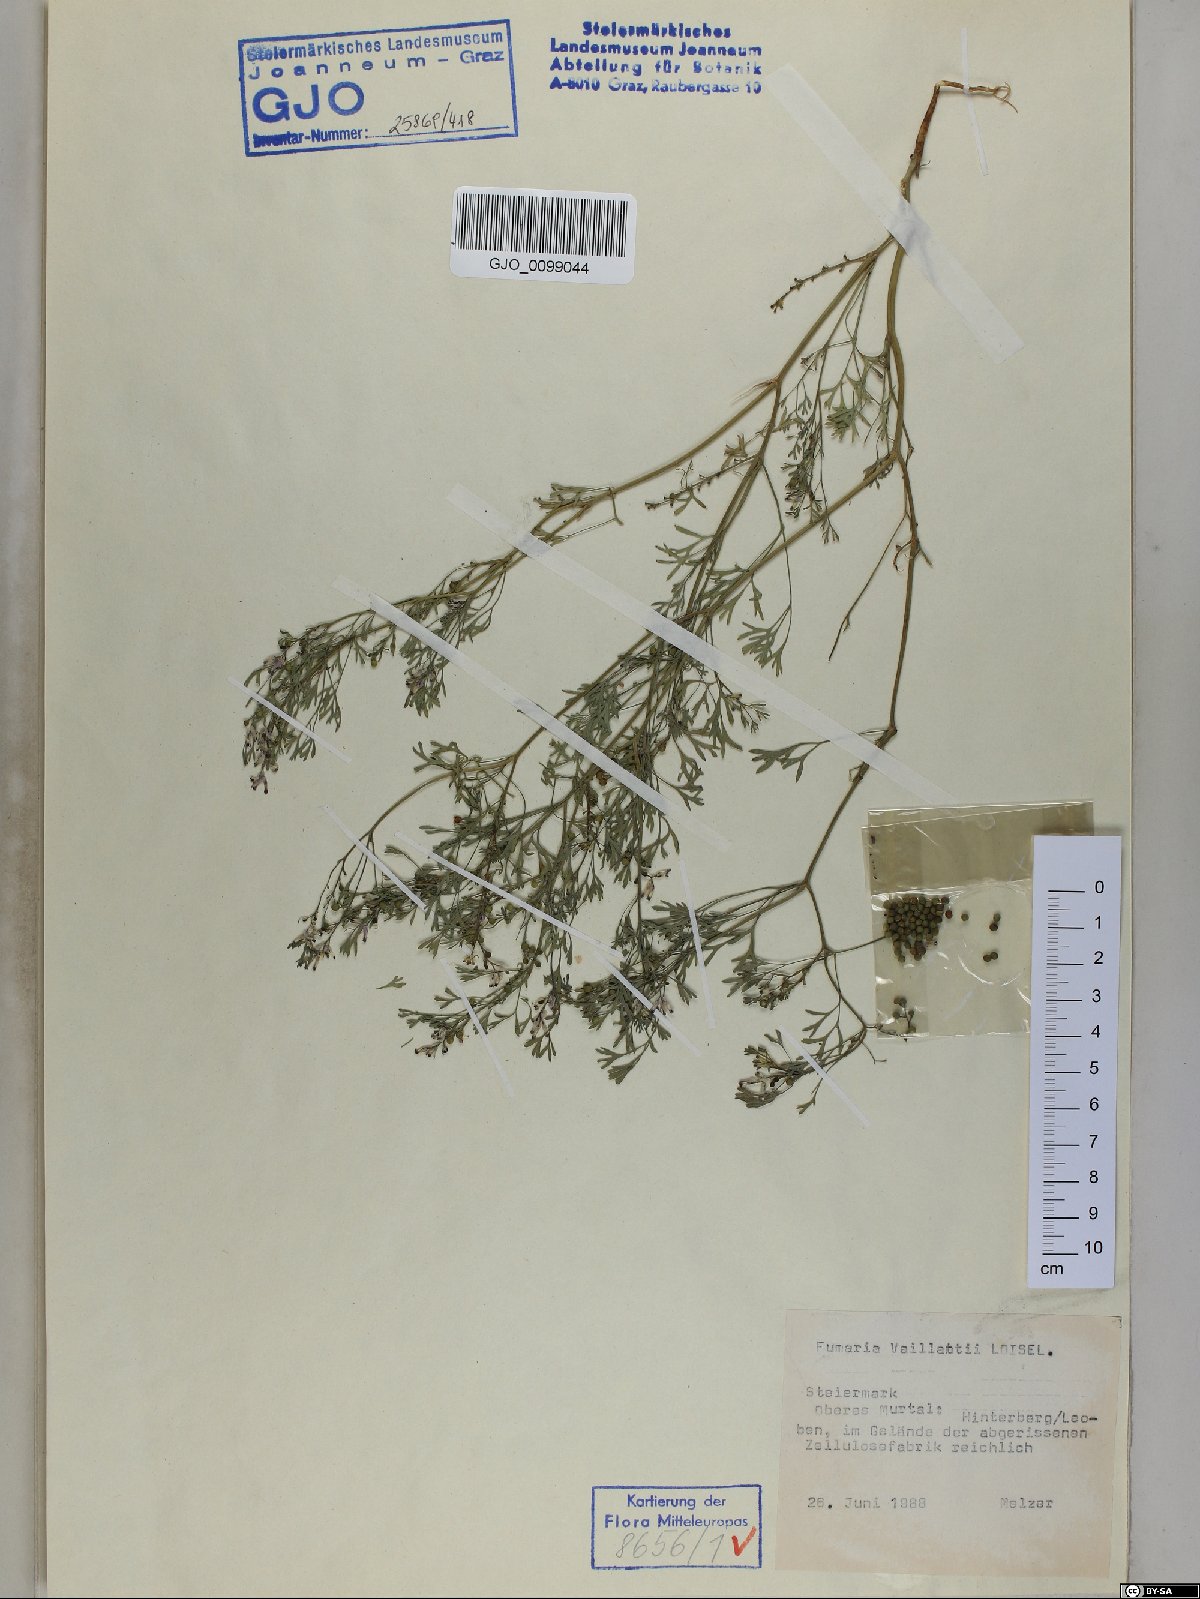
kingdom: Plantae
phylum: Tracheophyta
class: Magnoliopsida
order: Ranunculales
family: Papaveraceae
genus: Fumaria
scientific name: Fumaria vaillantii
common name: Few-flowered fumitory
